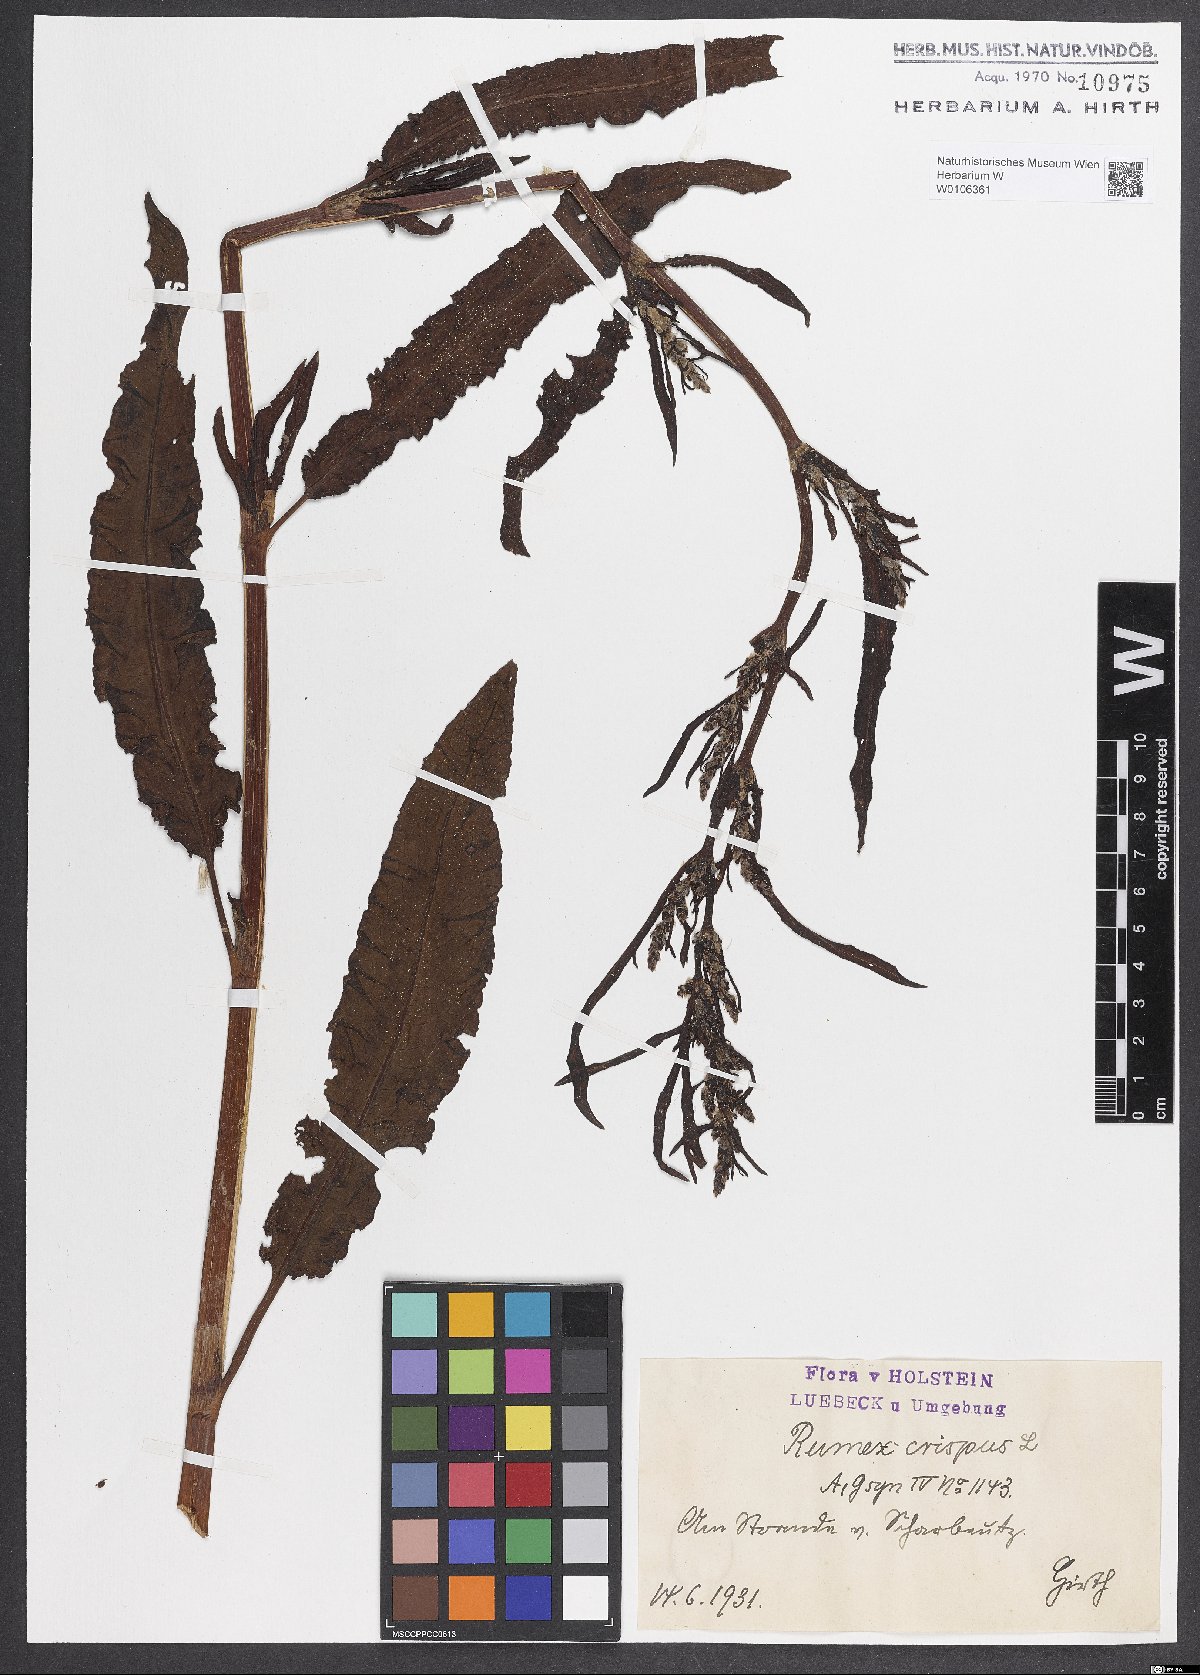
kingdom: Plantae
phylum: Tracheophyta
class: Magnoliopsida
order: Caryophyllales
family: Polygonaceae
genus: Rumex
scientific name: Rumex crispus
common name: Curled dock
